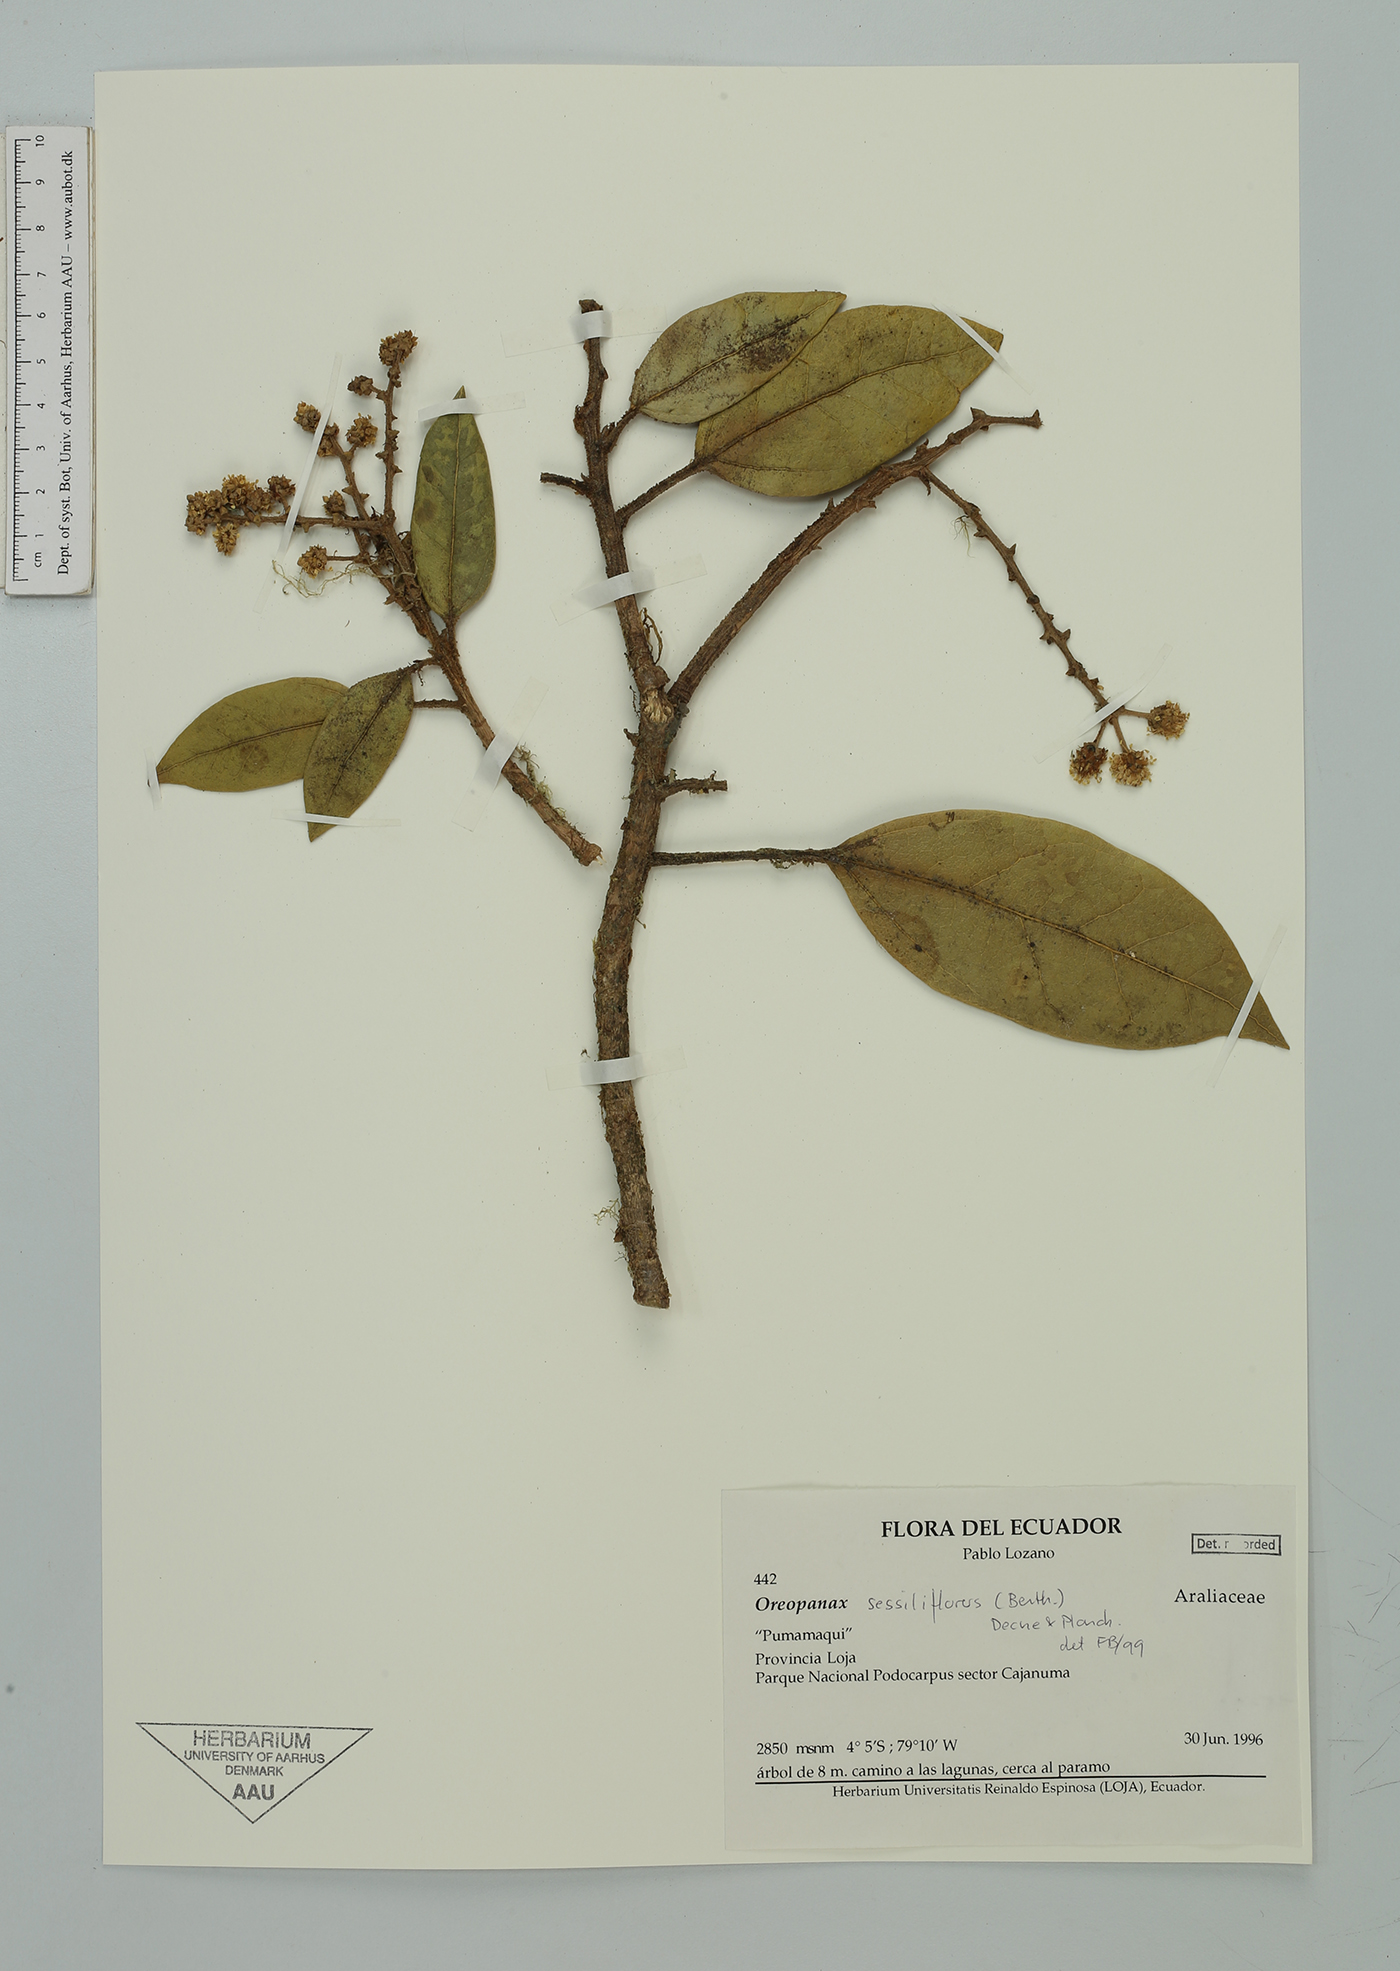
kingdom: Plantae
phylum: Tracheophyta
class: Magnoliopsida
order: Apiales
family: Araliaceae
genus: Oreopanax
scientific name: Oreopanax
